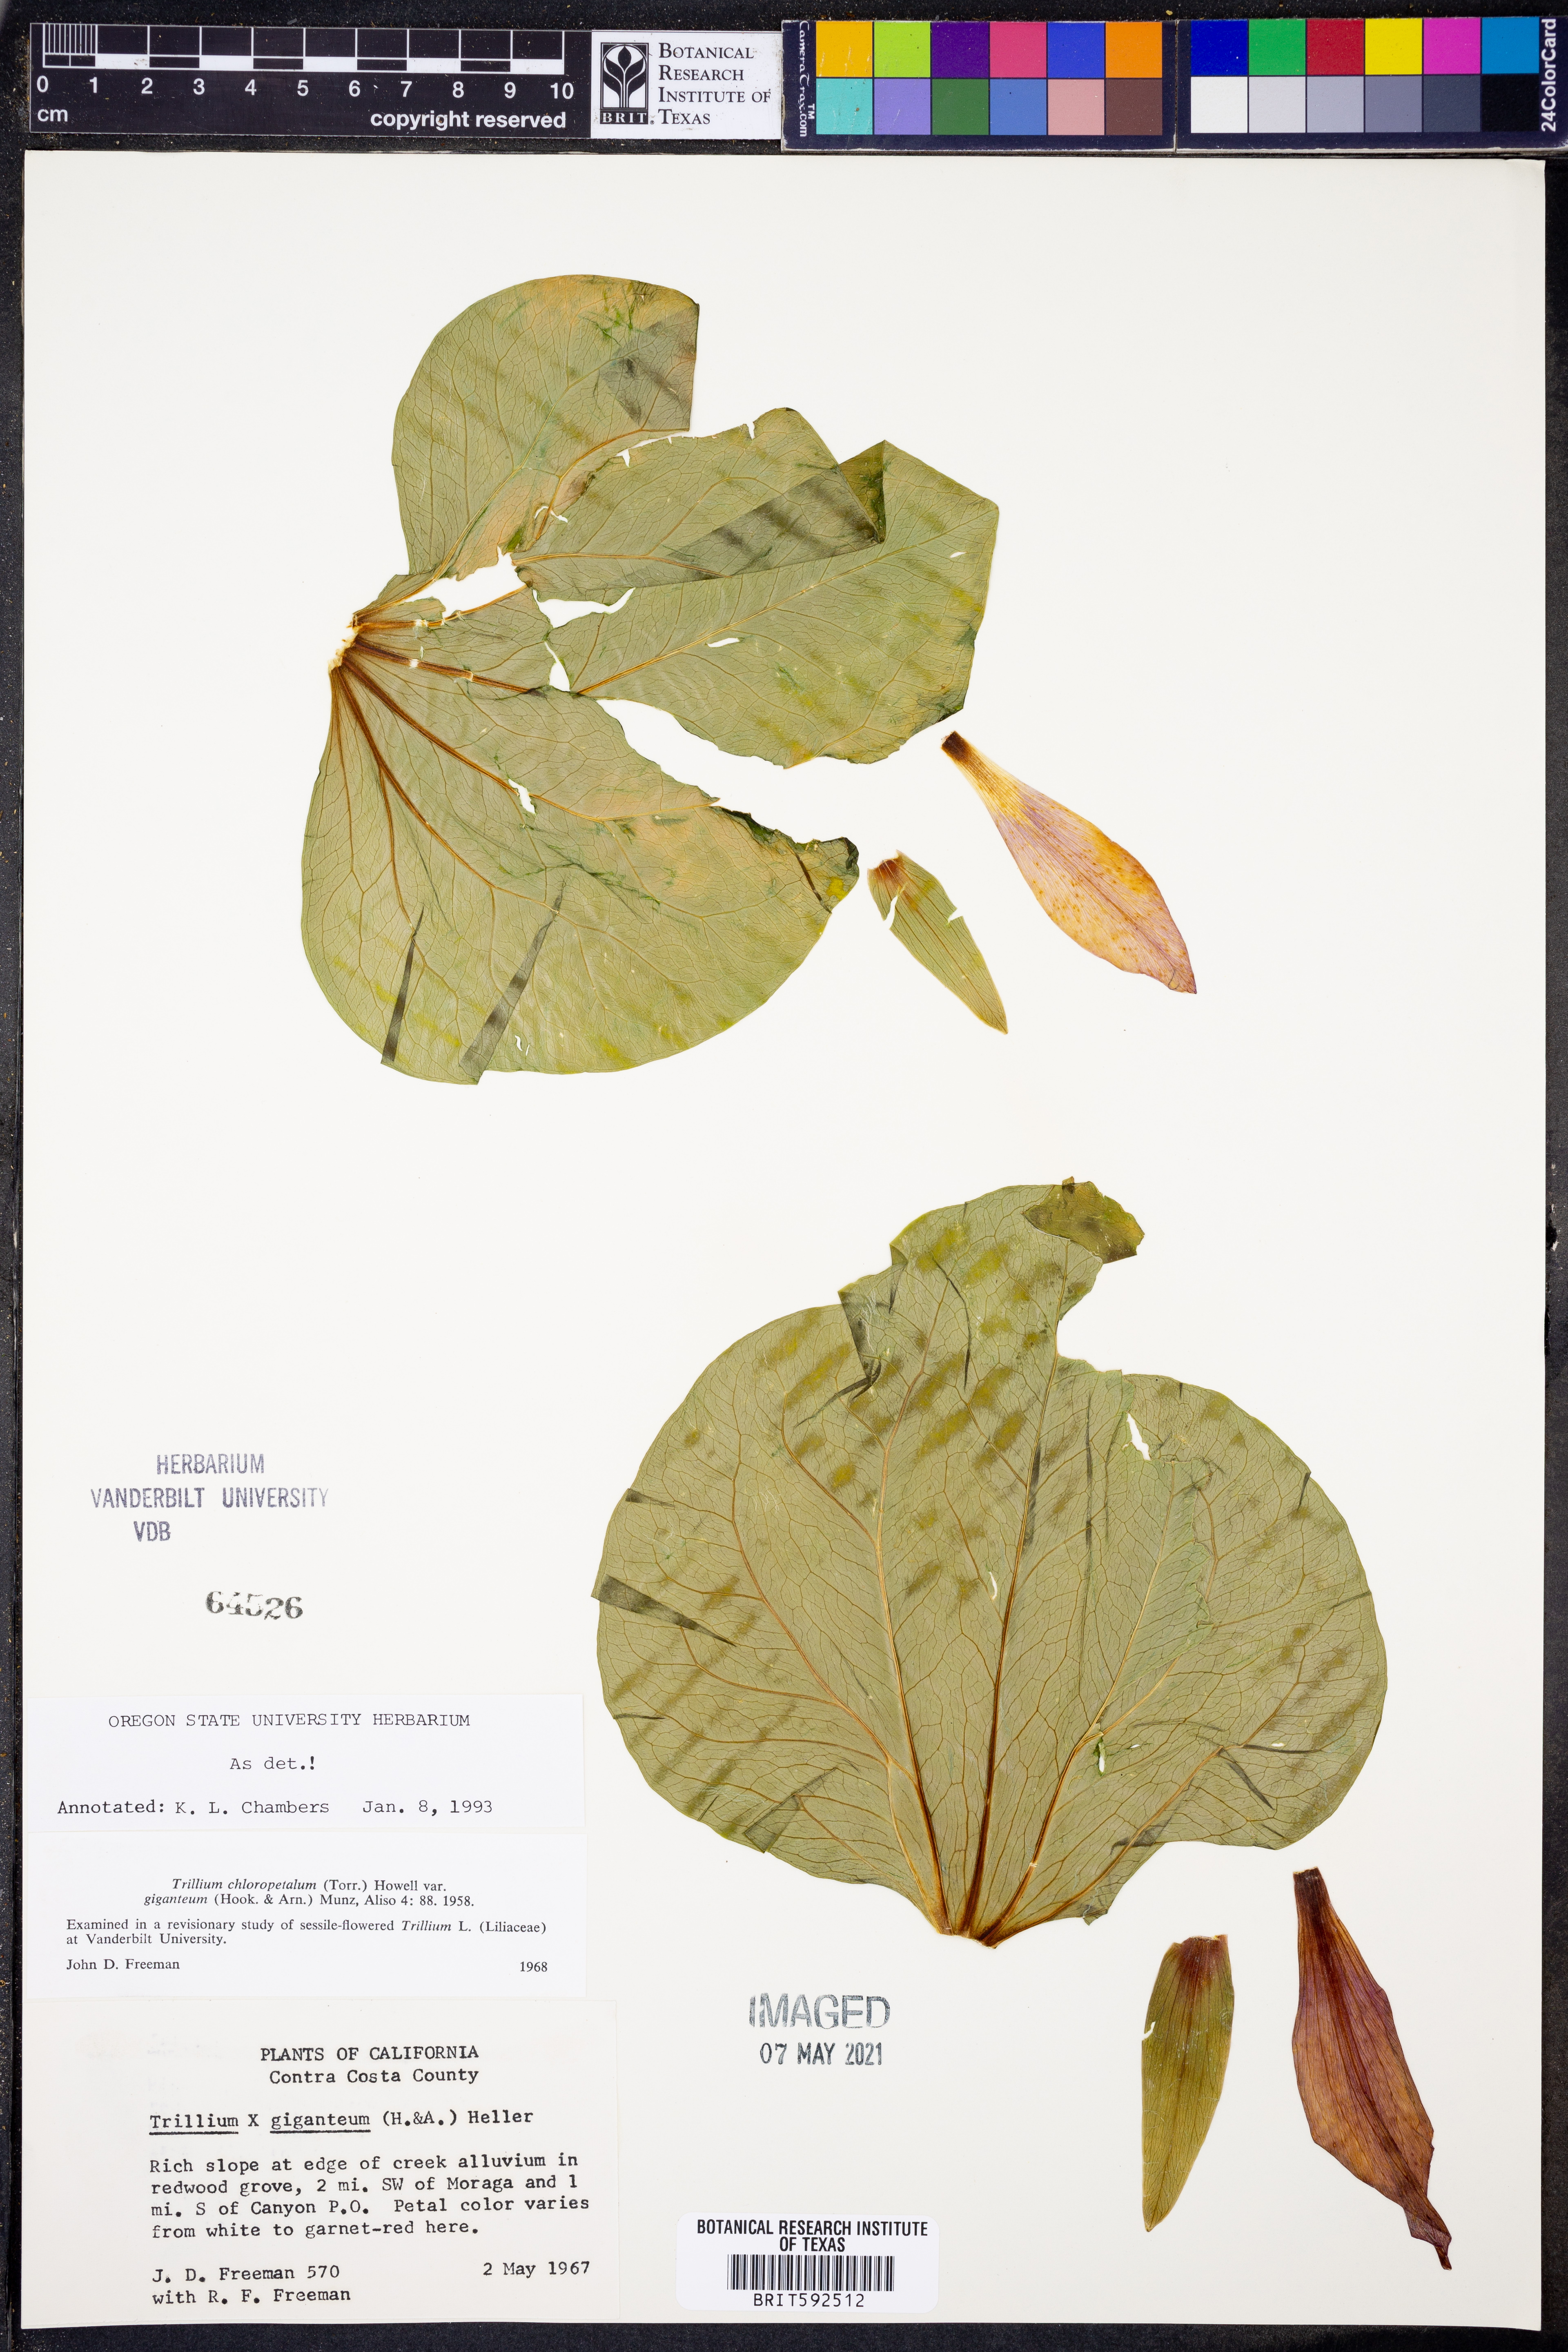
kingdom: Plantae
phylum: Tracheophyta
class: Liliopsida
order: Liliales
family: Melanthiaceae
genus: Trillium
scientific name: Trillium chloropetalum
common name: Giant trillium
